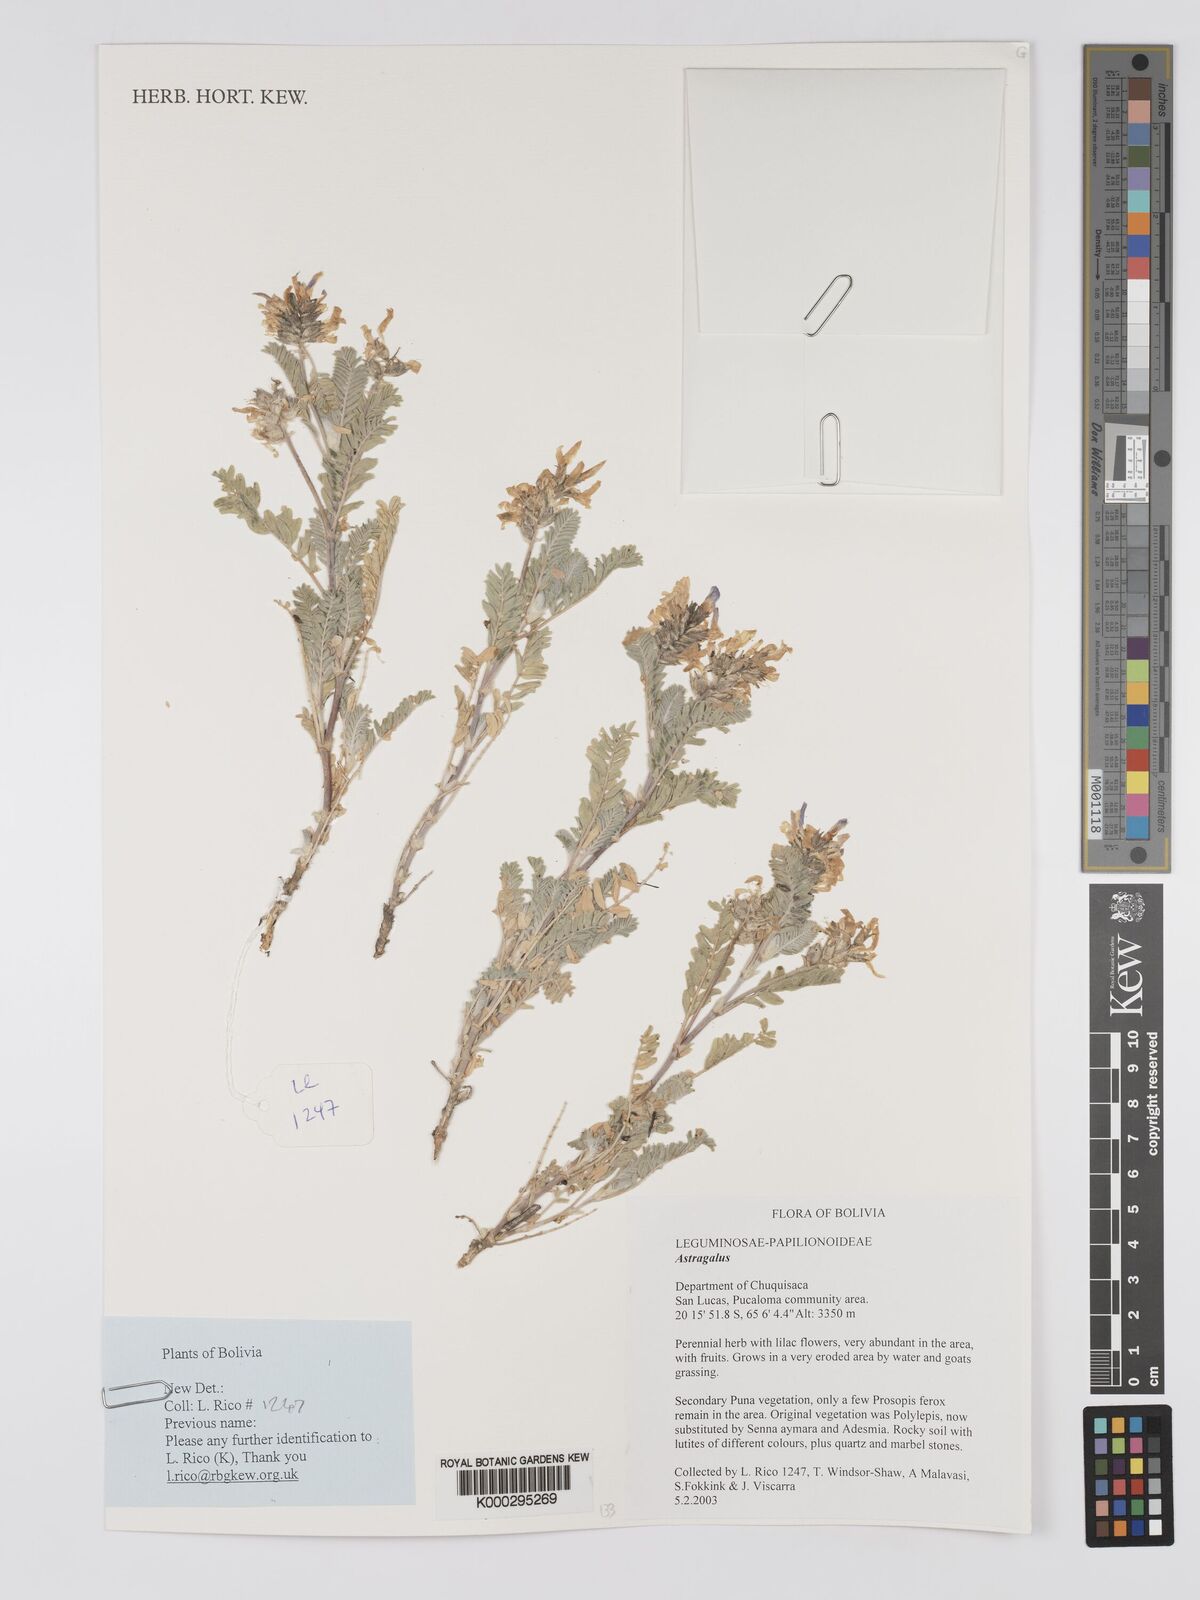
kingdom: Plantae
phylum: Tracheophyta
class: Magnoliopsida
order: Fabales
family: Fabaceae
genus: Astragalus
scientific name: Astragalus pickeringii
